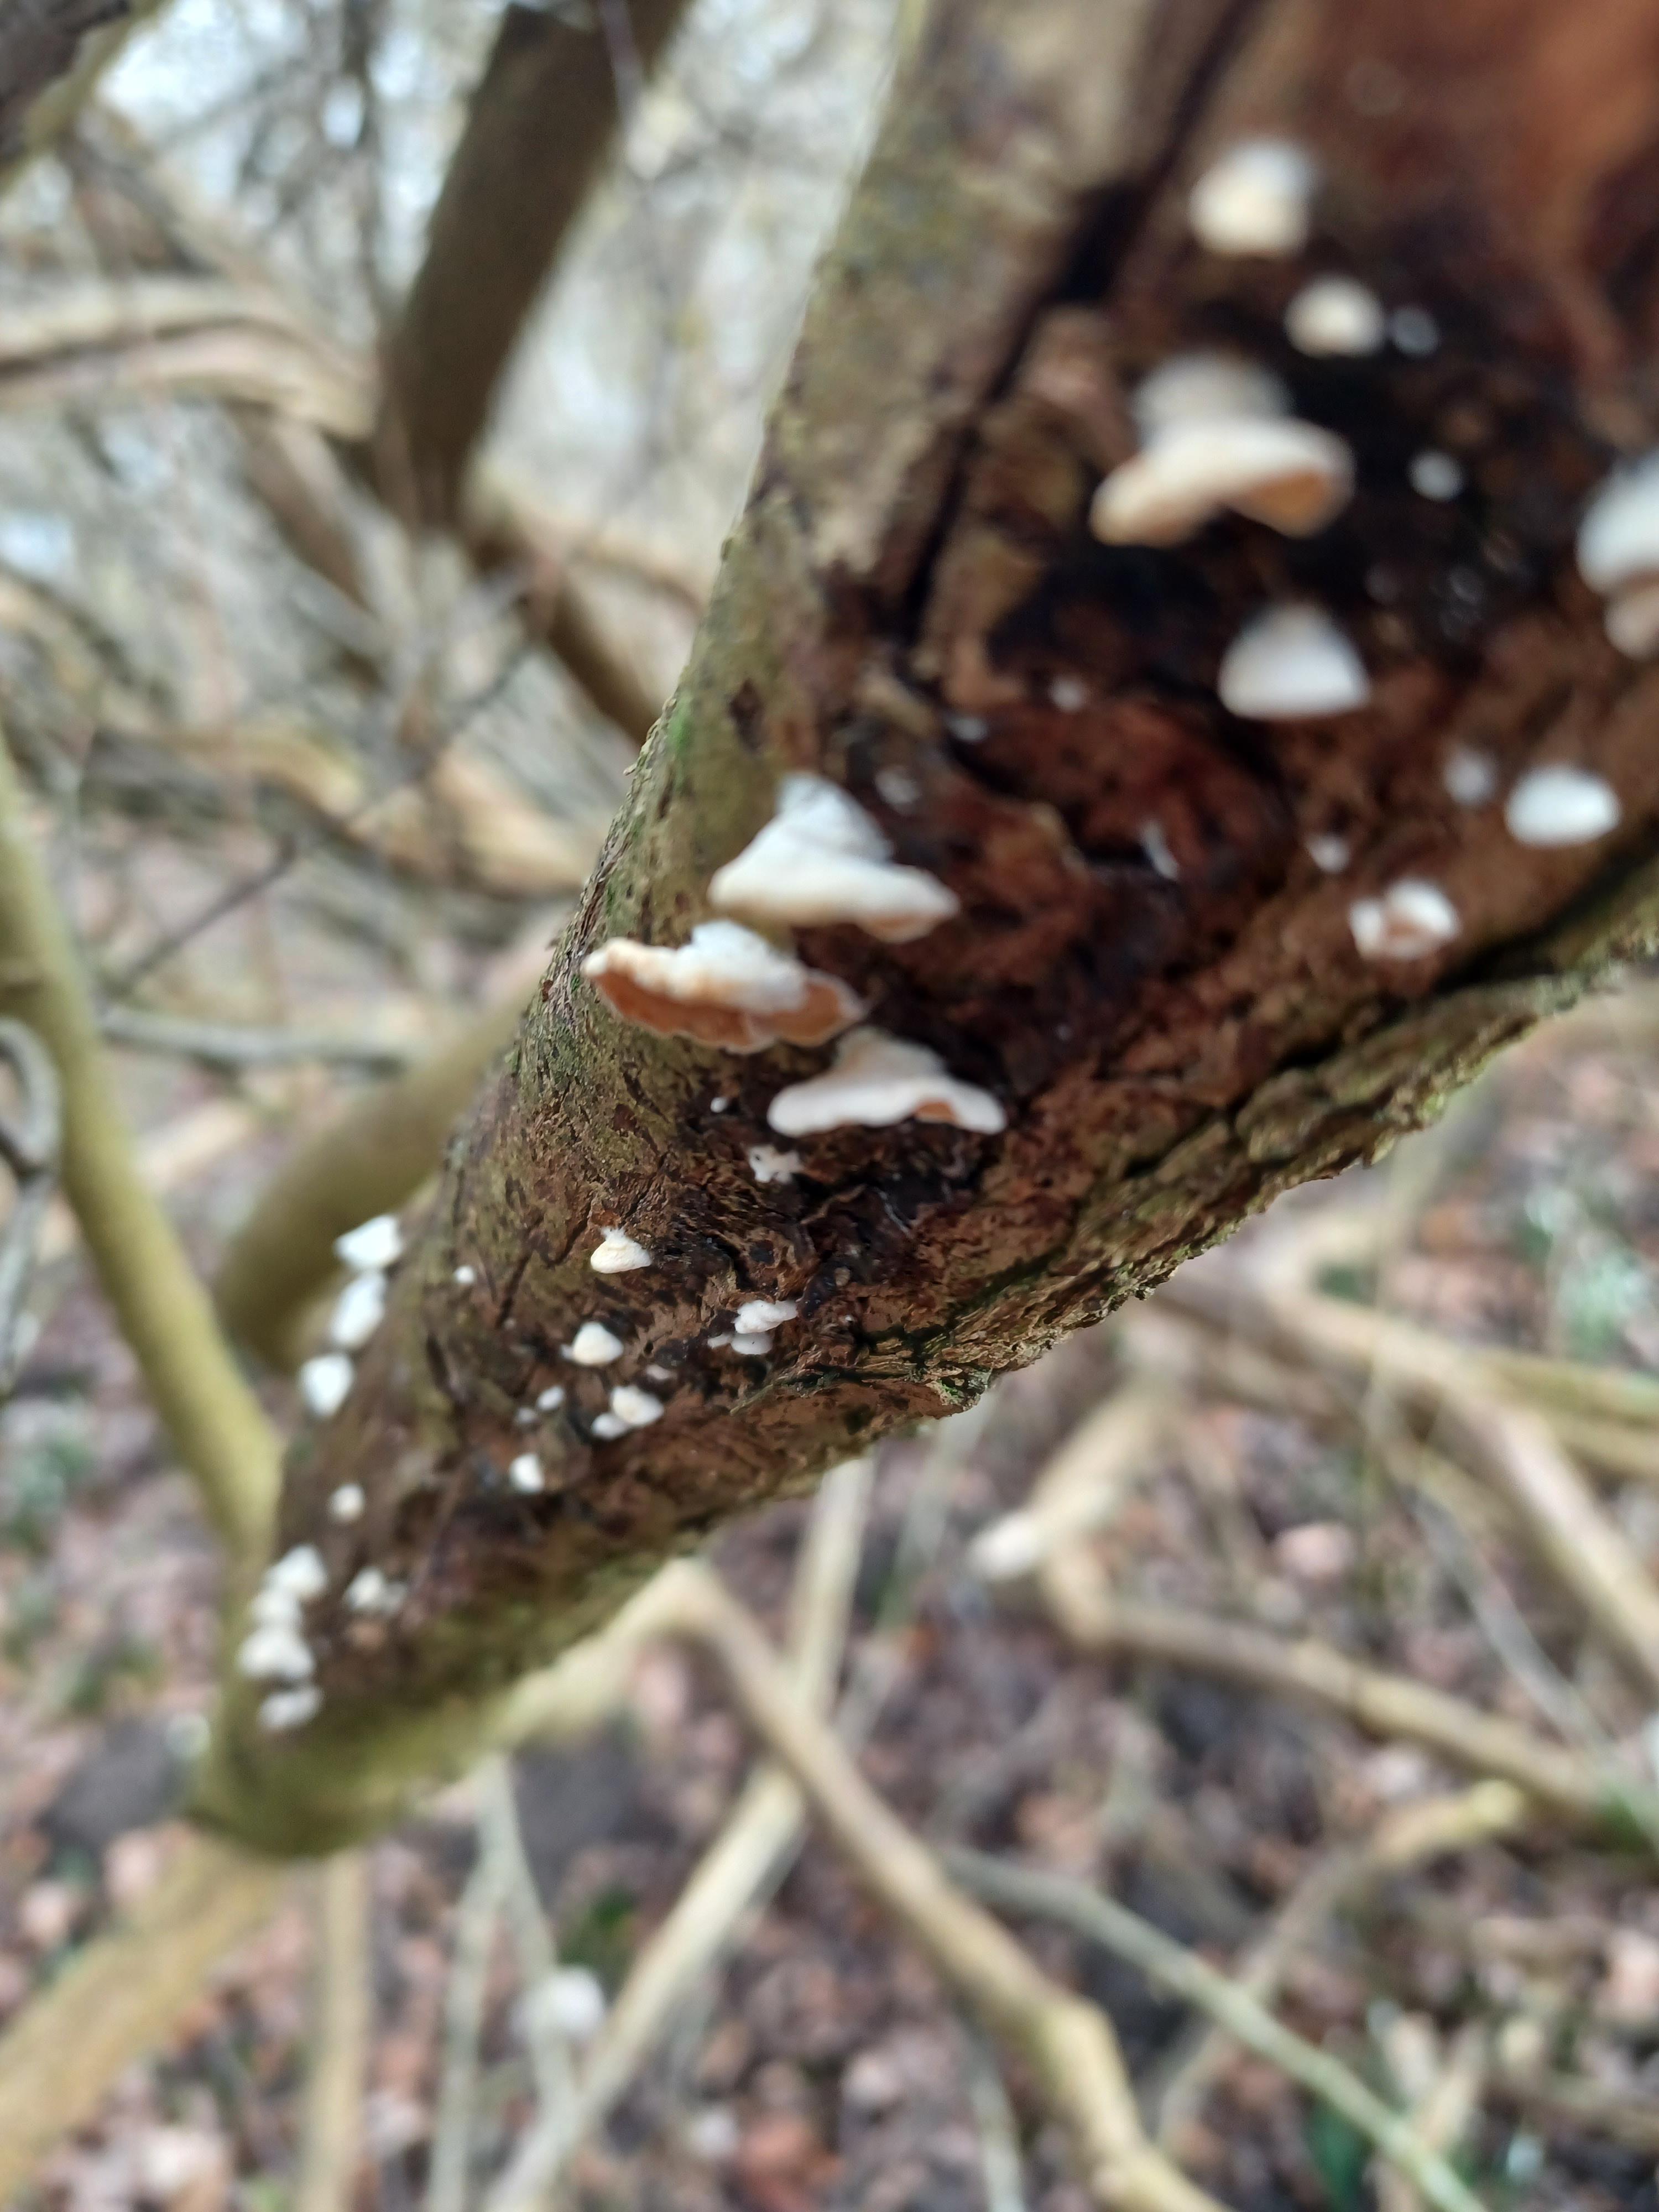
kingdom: Fungi
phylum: Basidiomycota
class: Agaricomycetes
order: Agaricales
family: Crepidotaceae
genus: Crepidotus
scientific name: Crepidotus
